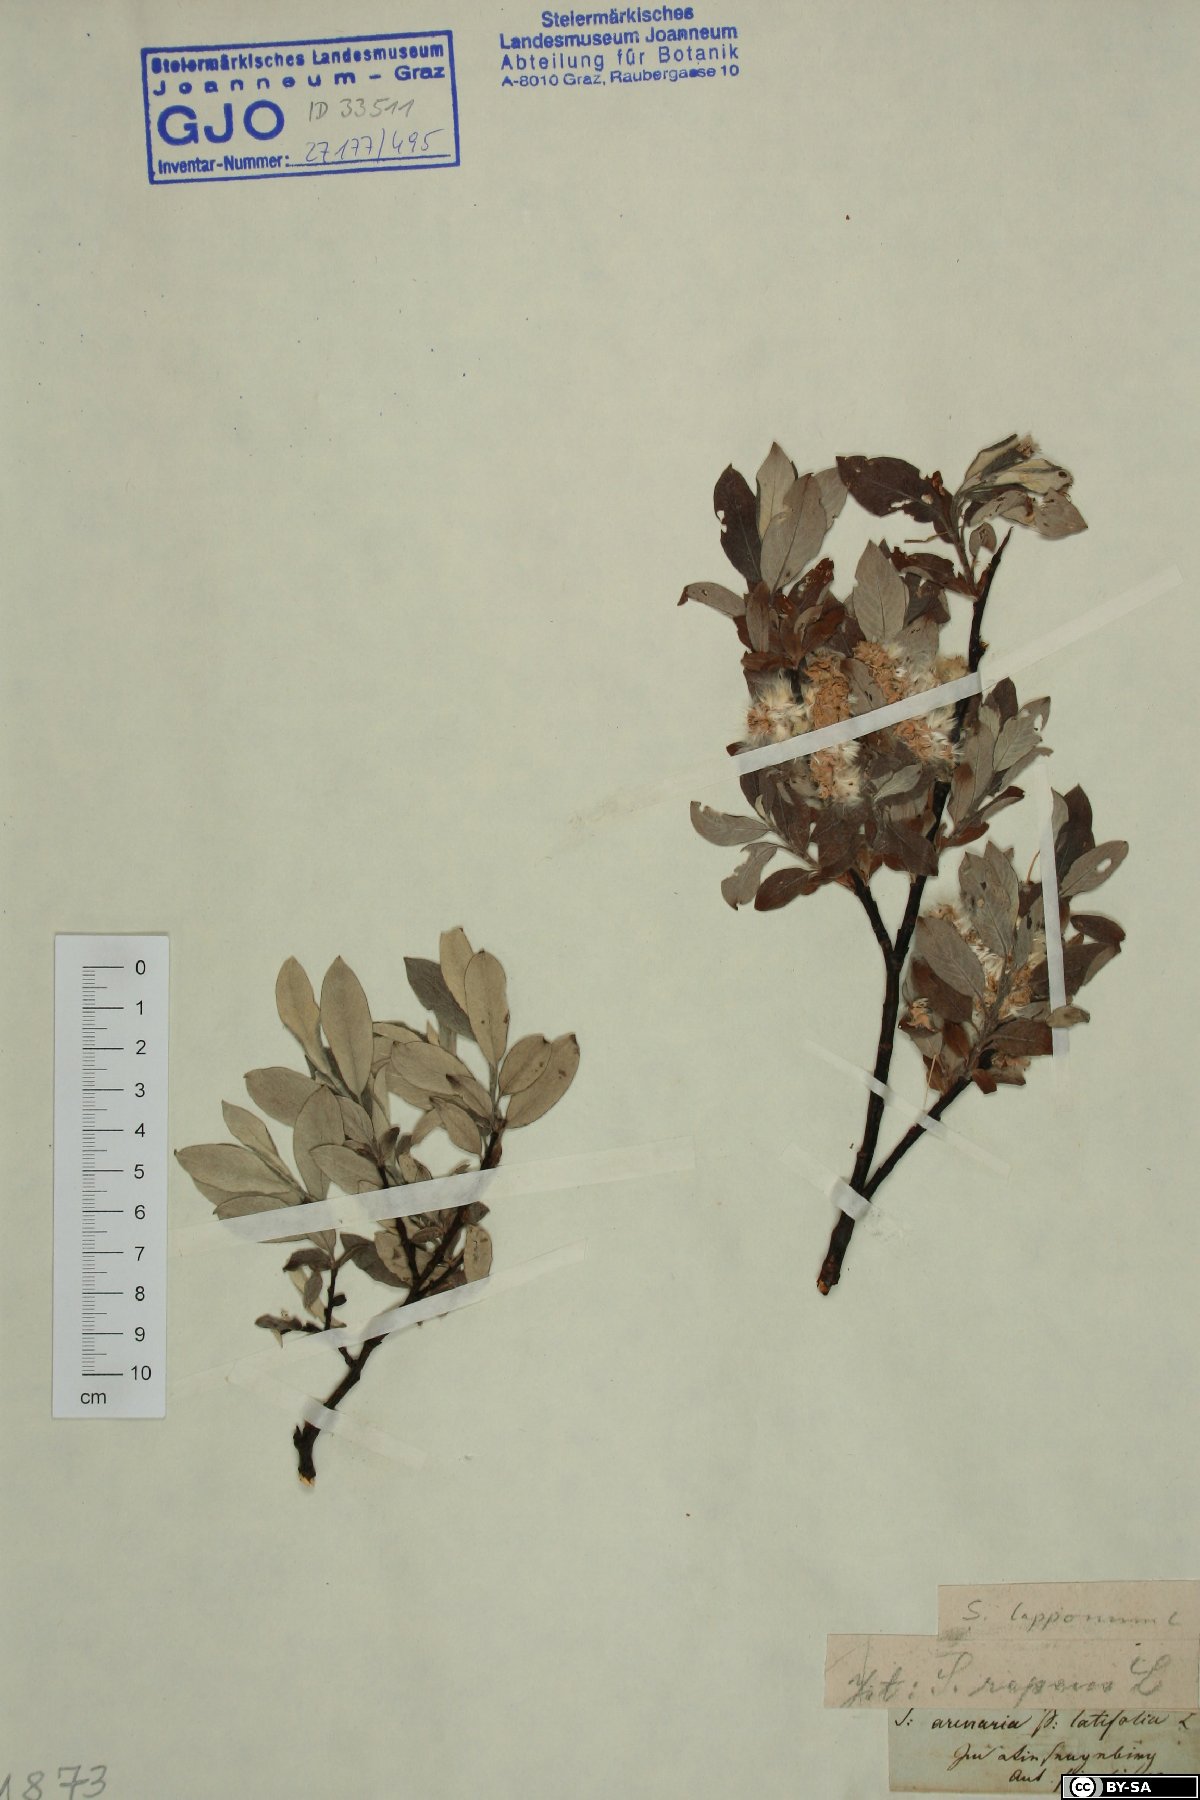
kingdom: Plantae
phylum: Tracheophyta
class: Magnoliopsida
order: Malpighiales
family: Salicaceae
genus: Salix
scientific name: Salix lapponum
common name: Downy willow
